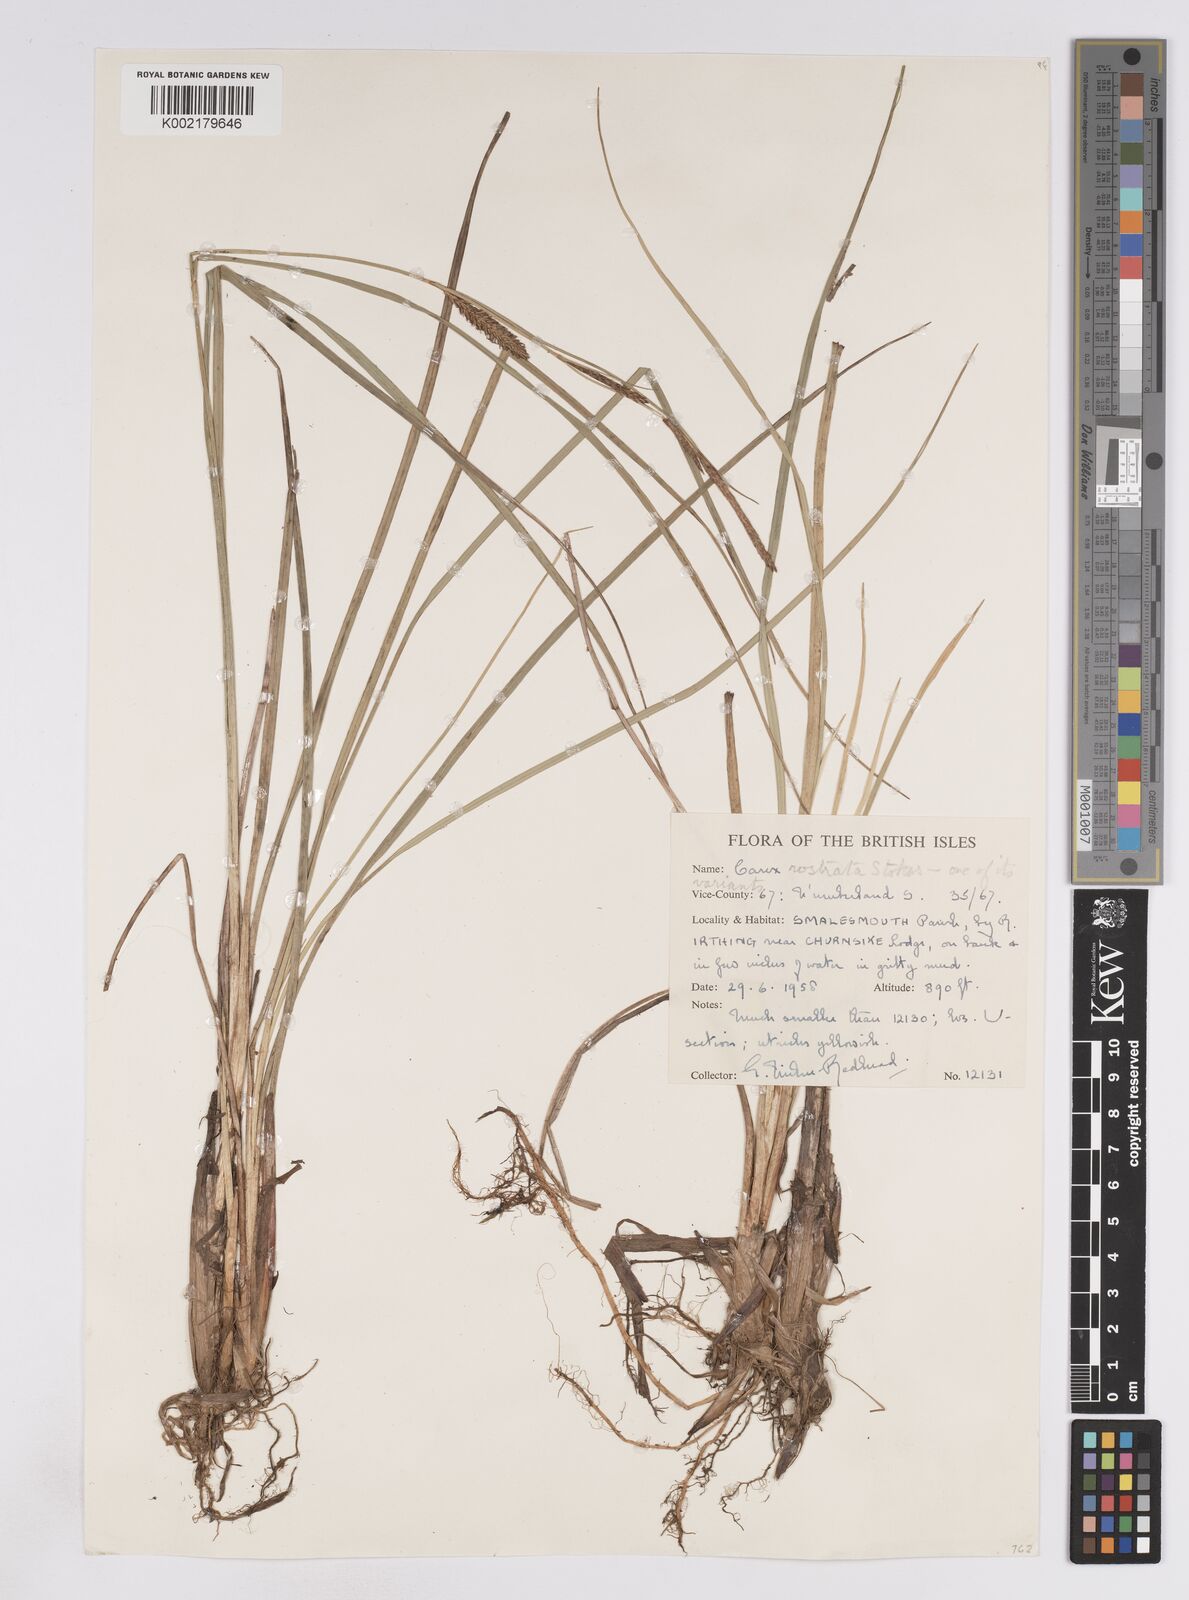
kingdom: Plantae
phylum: Tracheophyta
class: Liliopsida
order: Poales
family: Cyperaceae
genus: Carex
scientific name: Carex rostrata
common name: Bottle sedge
